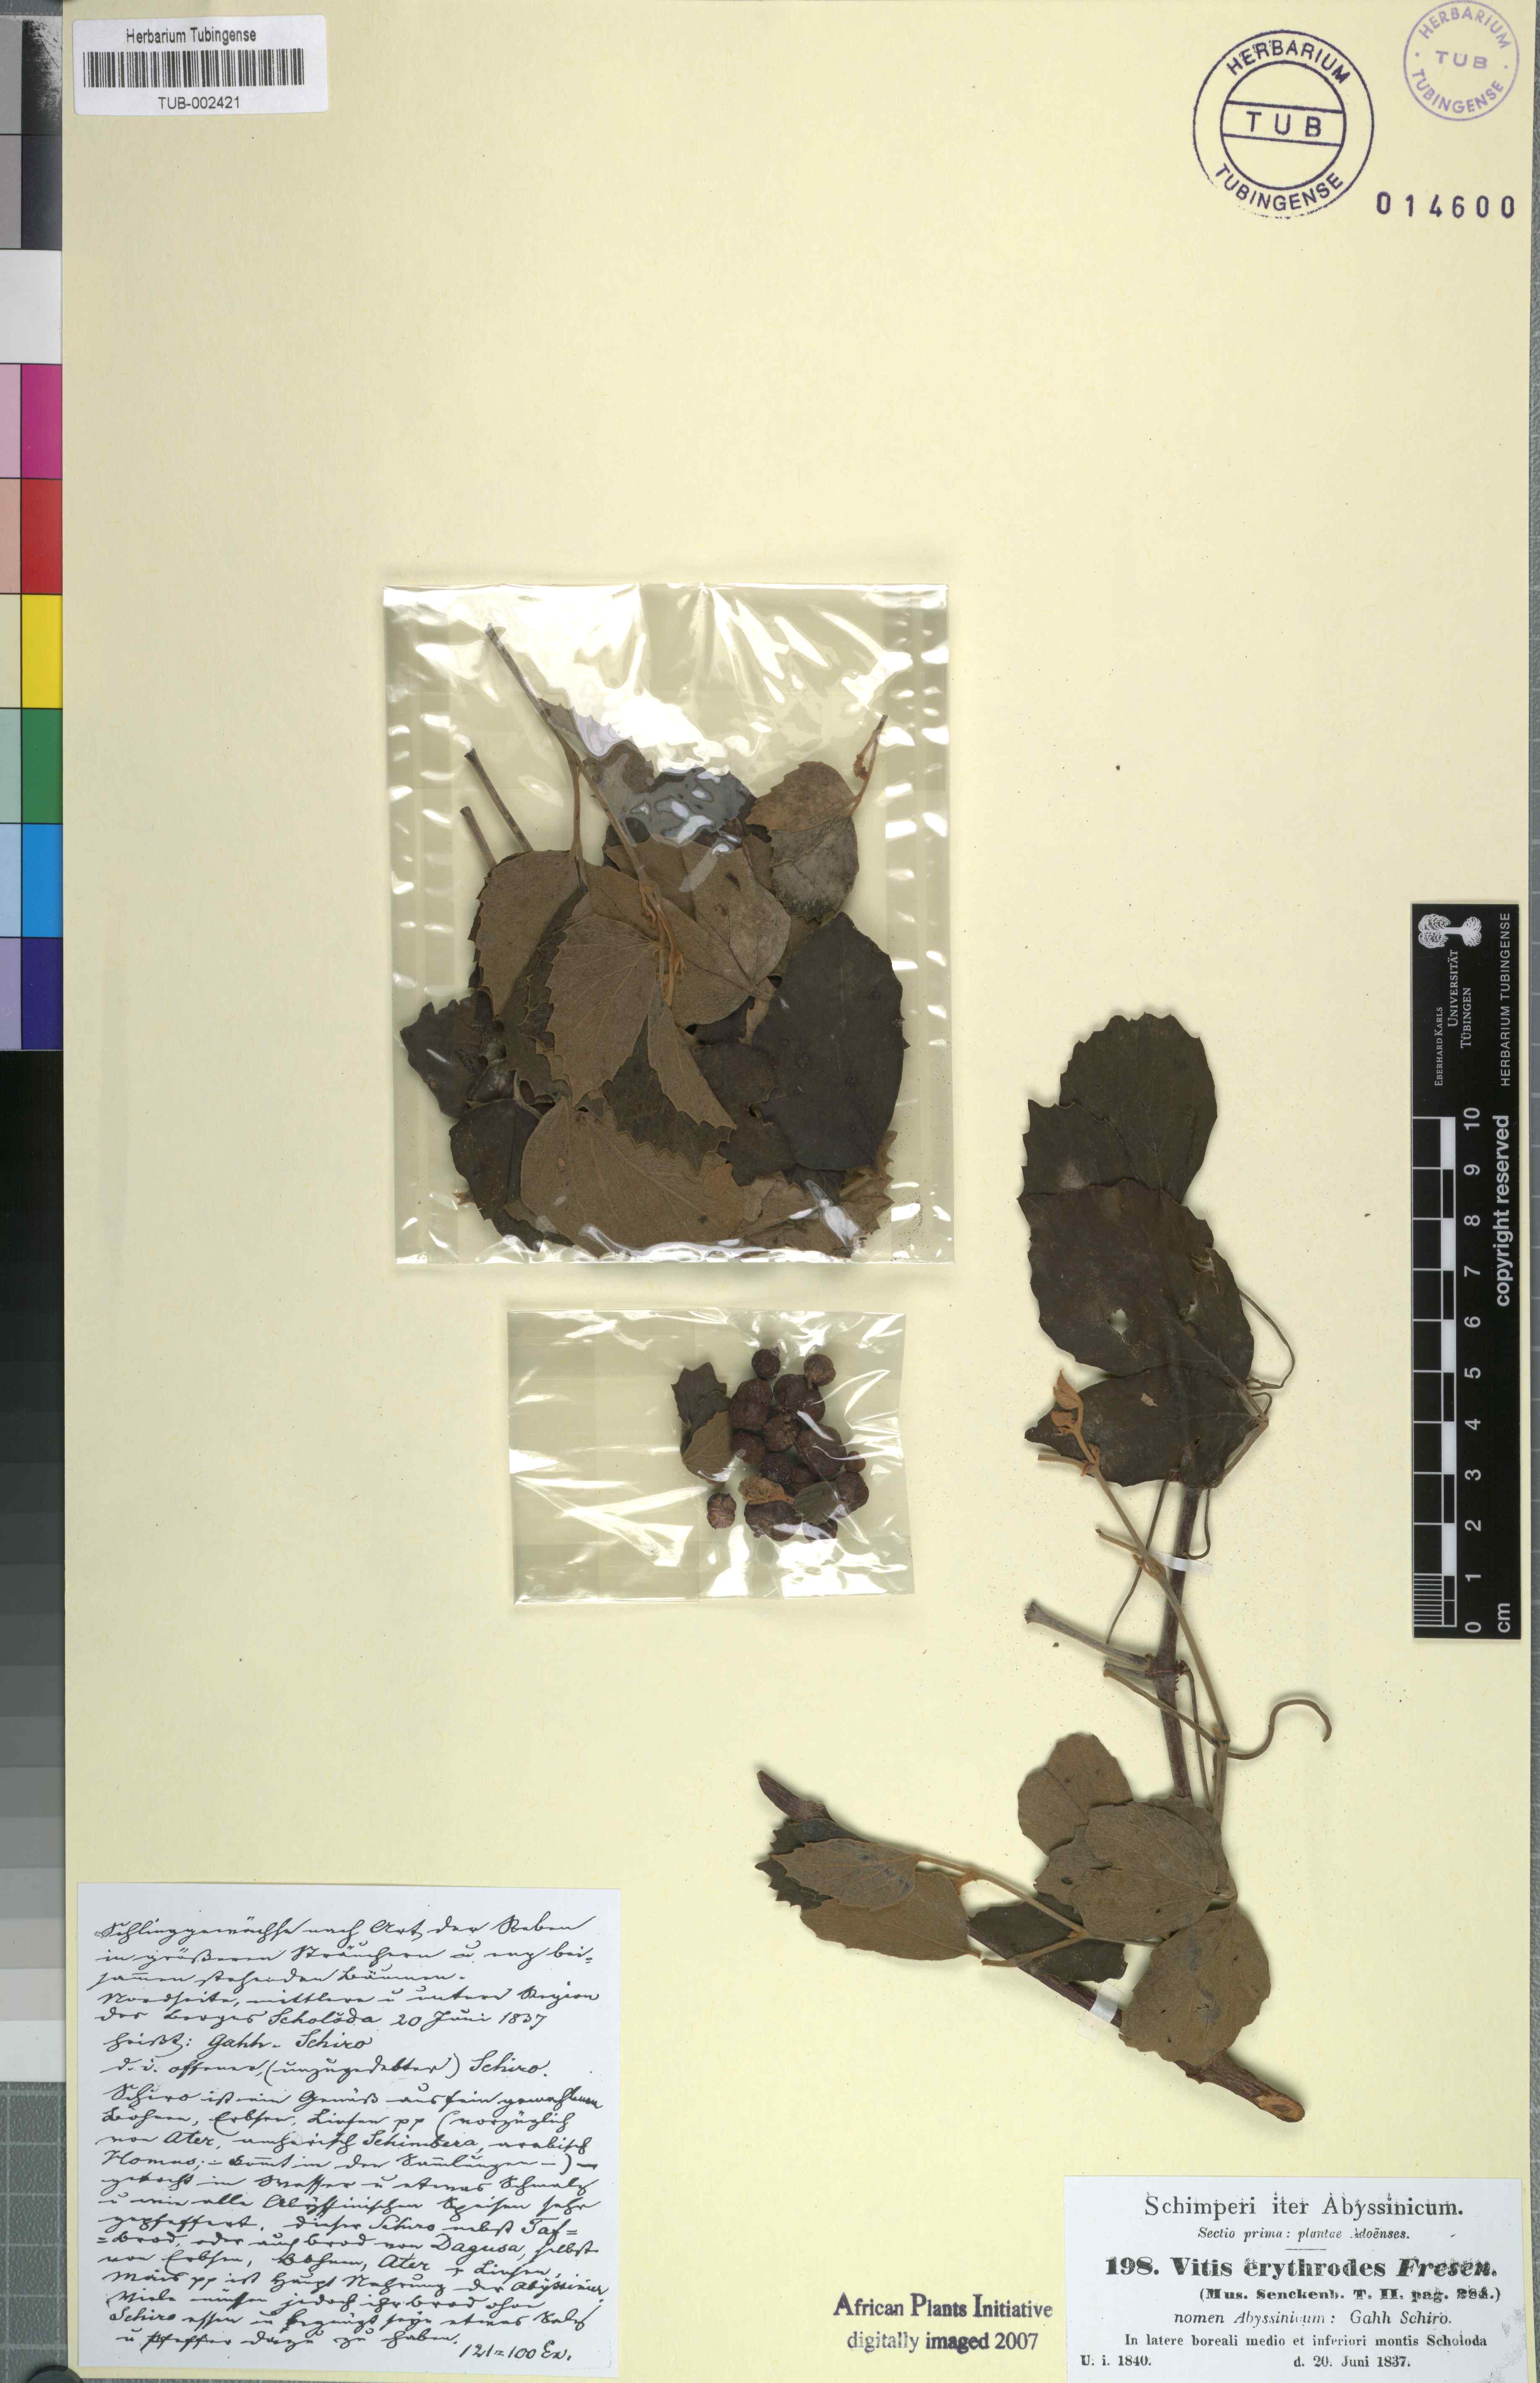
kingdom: Plantae
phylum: Tracheophyta
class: Magnoliopsida
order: Vitales
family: Vitaceae
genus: Rhoicissus
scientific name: Rhoicissus tridentata
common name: Common forest grape
